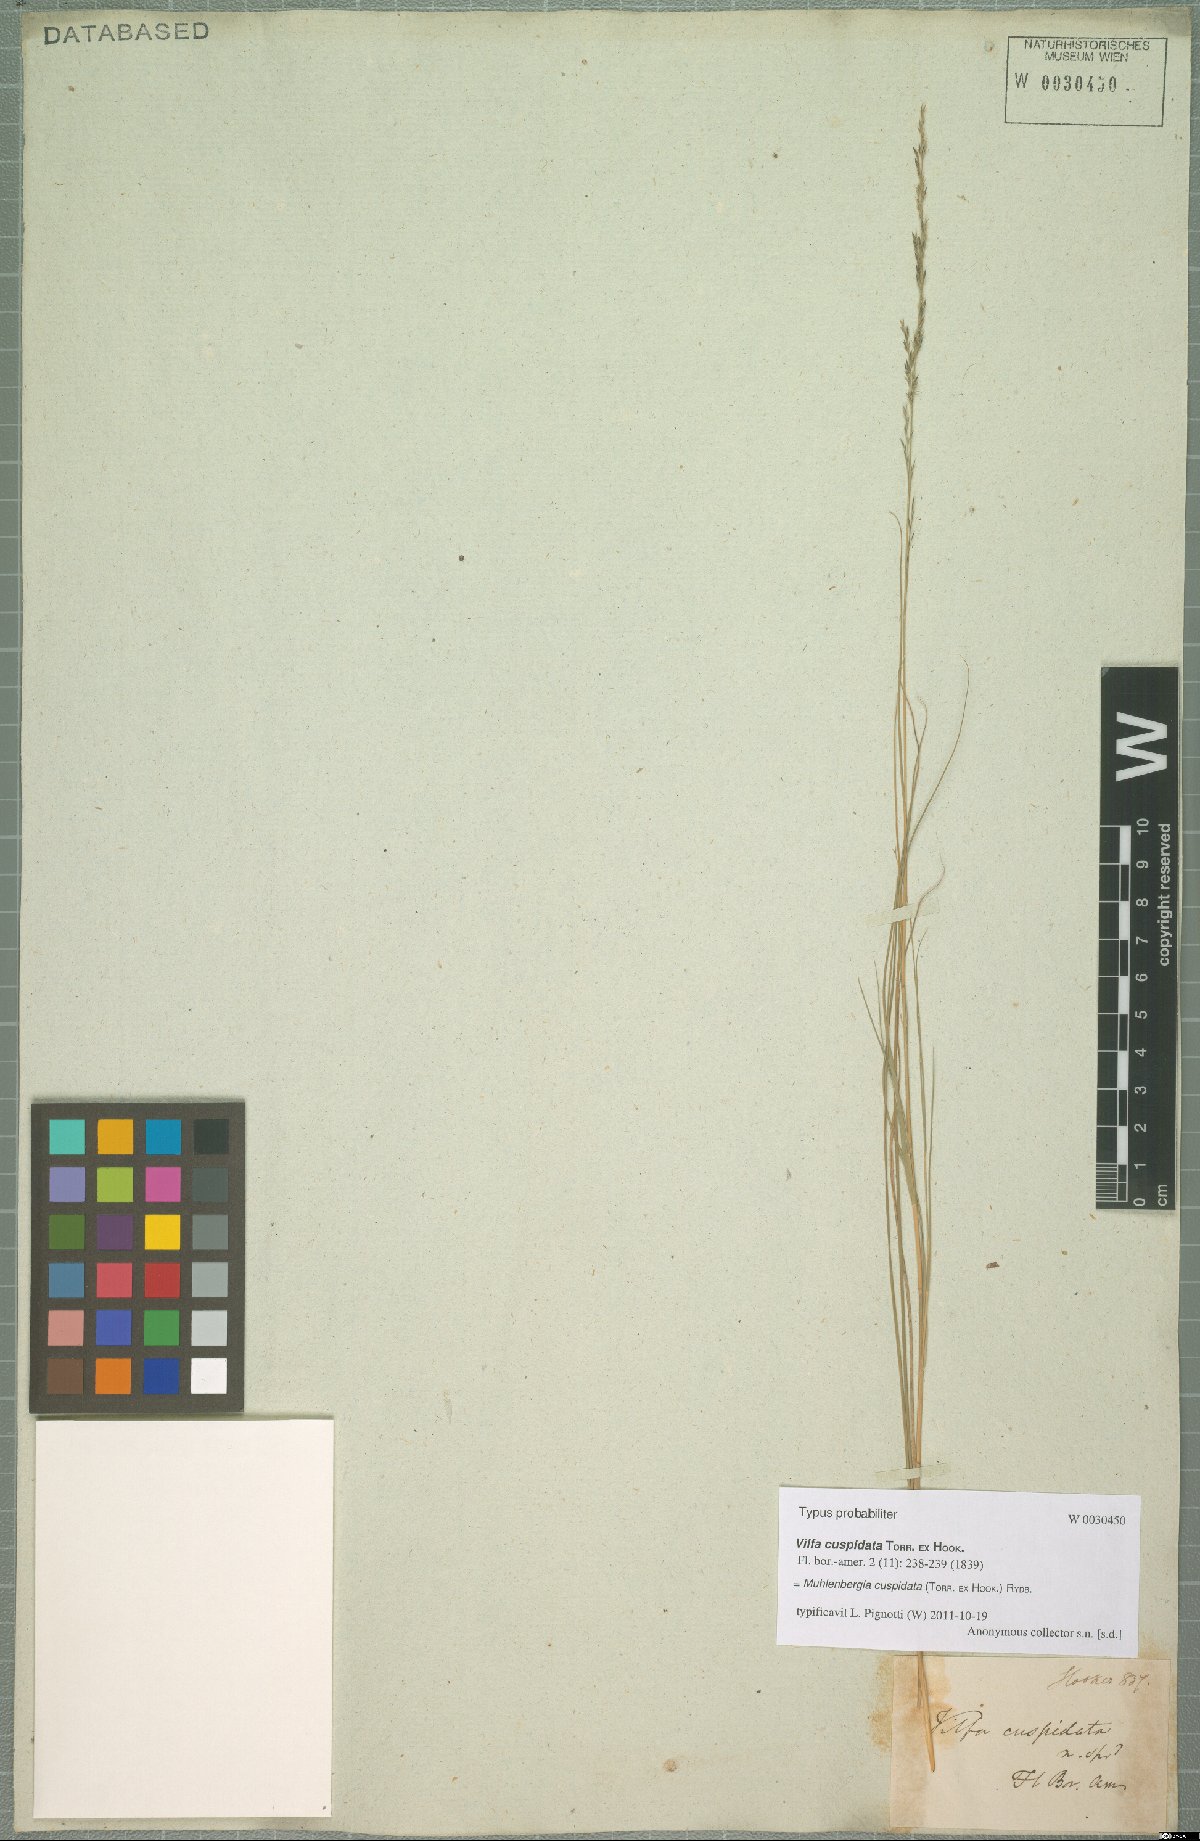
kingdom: Plantae
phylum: Tracheophyta
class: Liliopsida
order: Poales
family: Poaceae
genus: Muhlenbergia
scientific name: Muhlenbergia cuspidata
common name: Plains muhly
